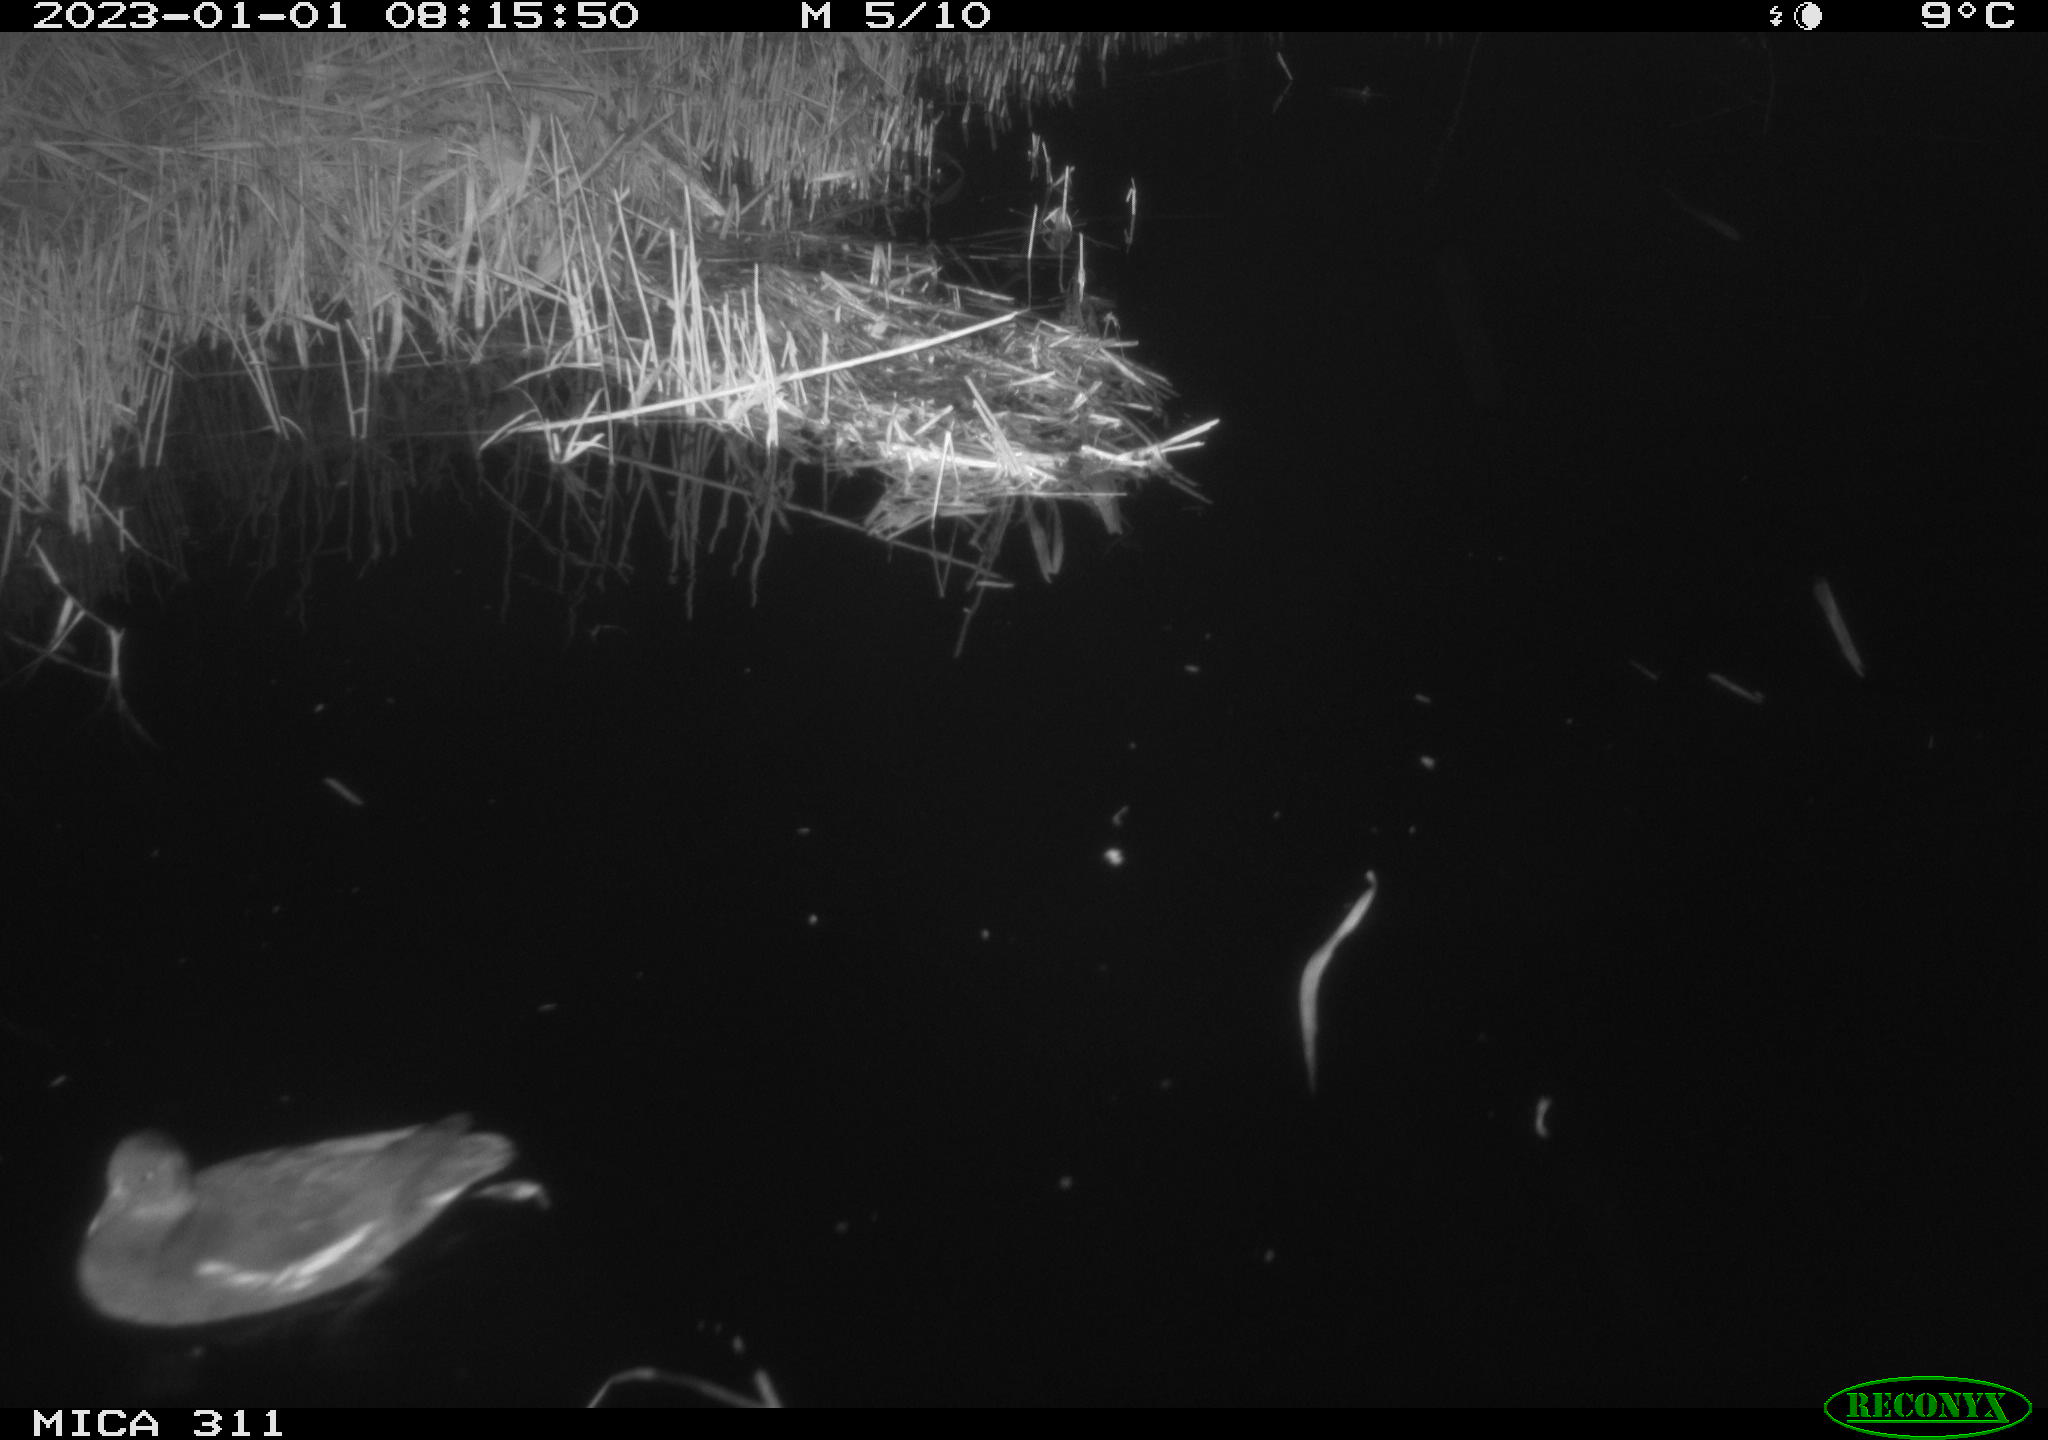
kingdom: Animalia
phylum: Chordata
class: Aves
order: Gruiformes
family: Rallidae
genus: Gallinula
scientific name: Gallinula chloropus
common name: Common moorhen
